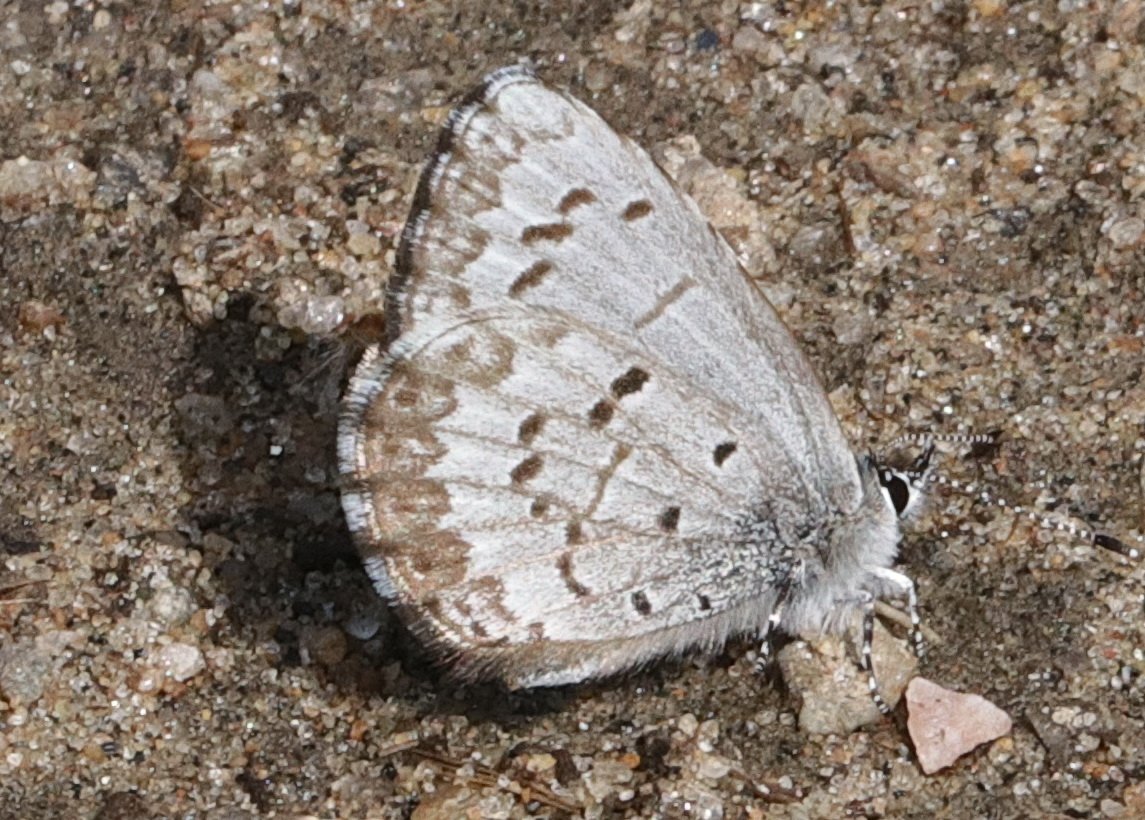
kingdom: Animalia
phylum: Arthropoda
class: Insecta
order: Lepidoptera
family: Lycaenidae
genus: Celastrina
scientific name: Celastrina lucia
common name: Northern Spring Azure
